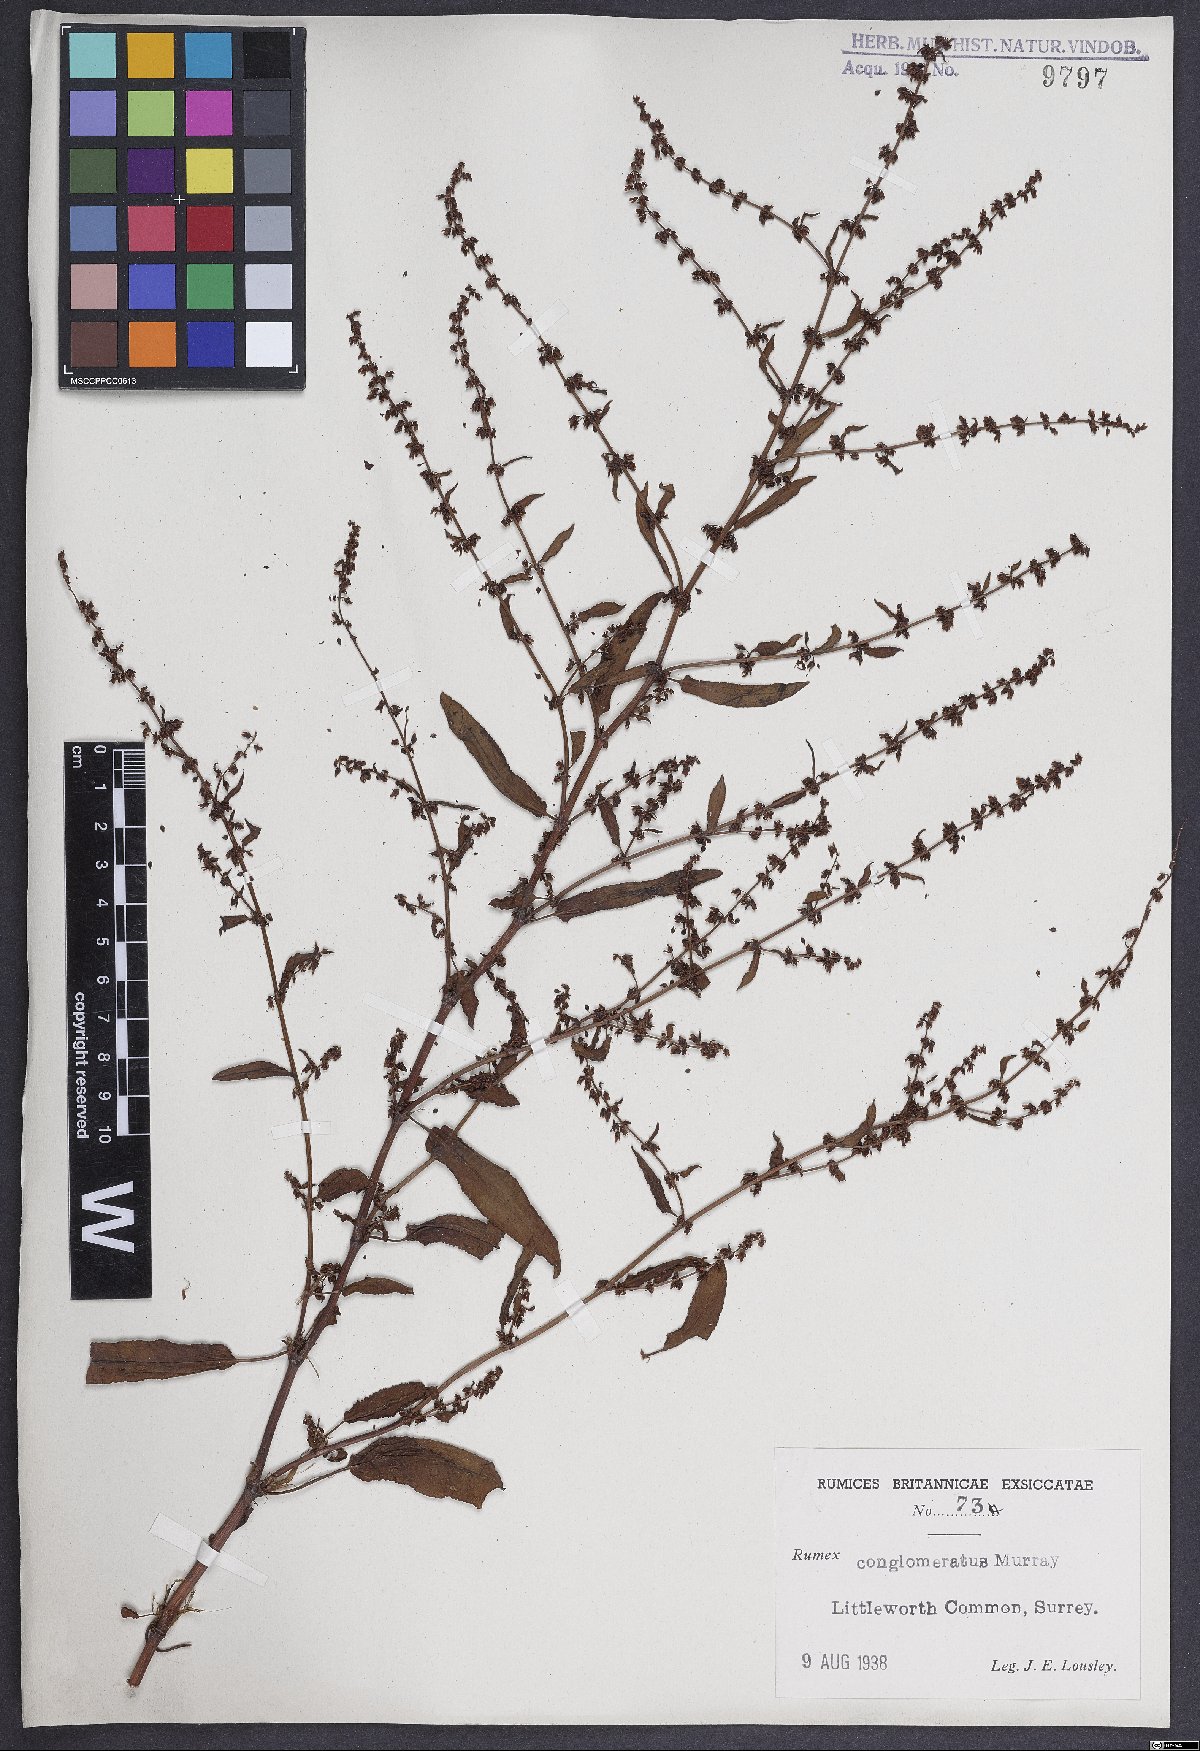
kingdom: Plantae
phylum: Tracheophyta
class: Magnoliopsida
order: Caryophyllales
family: Polygonaceae
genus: Rumex
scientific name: Rumex conglomeratus
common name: Clustered dock
